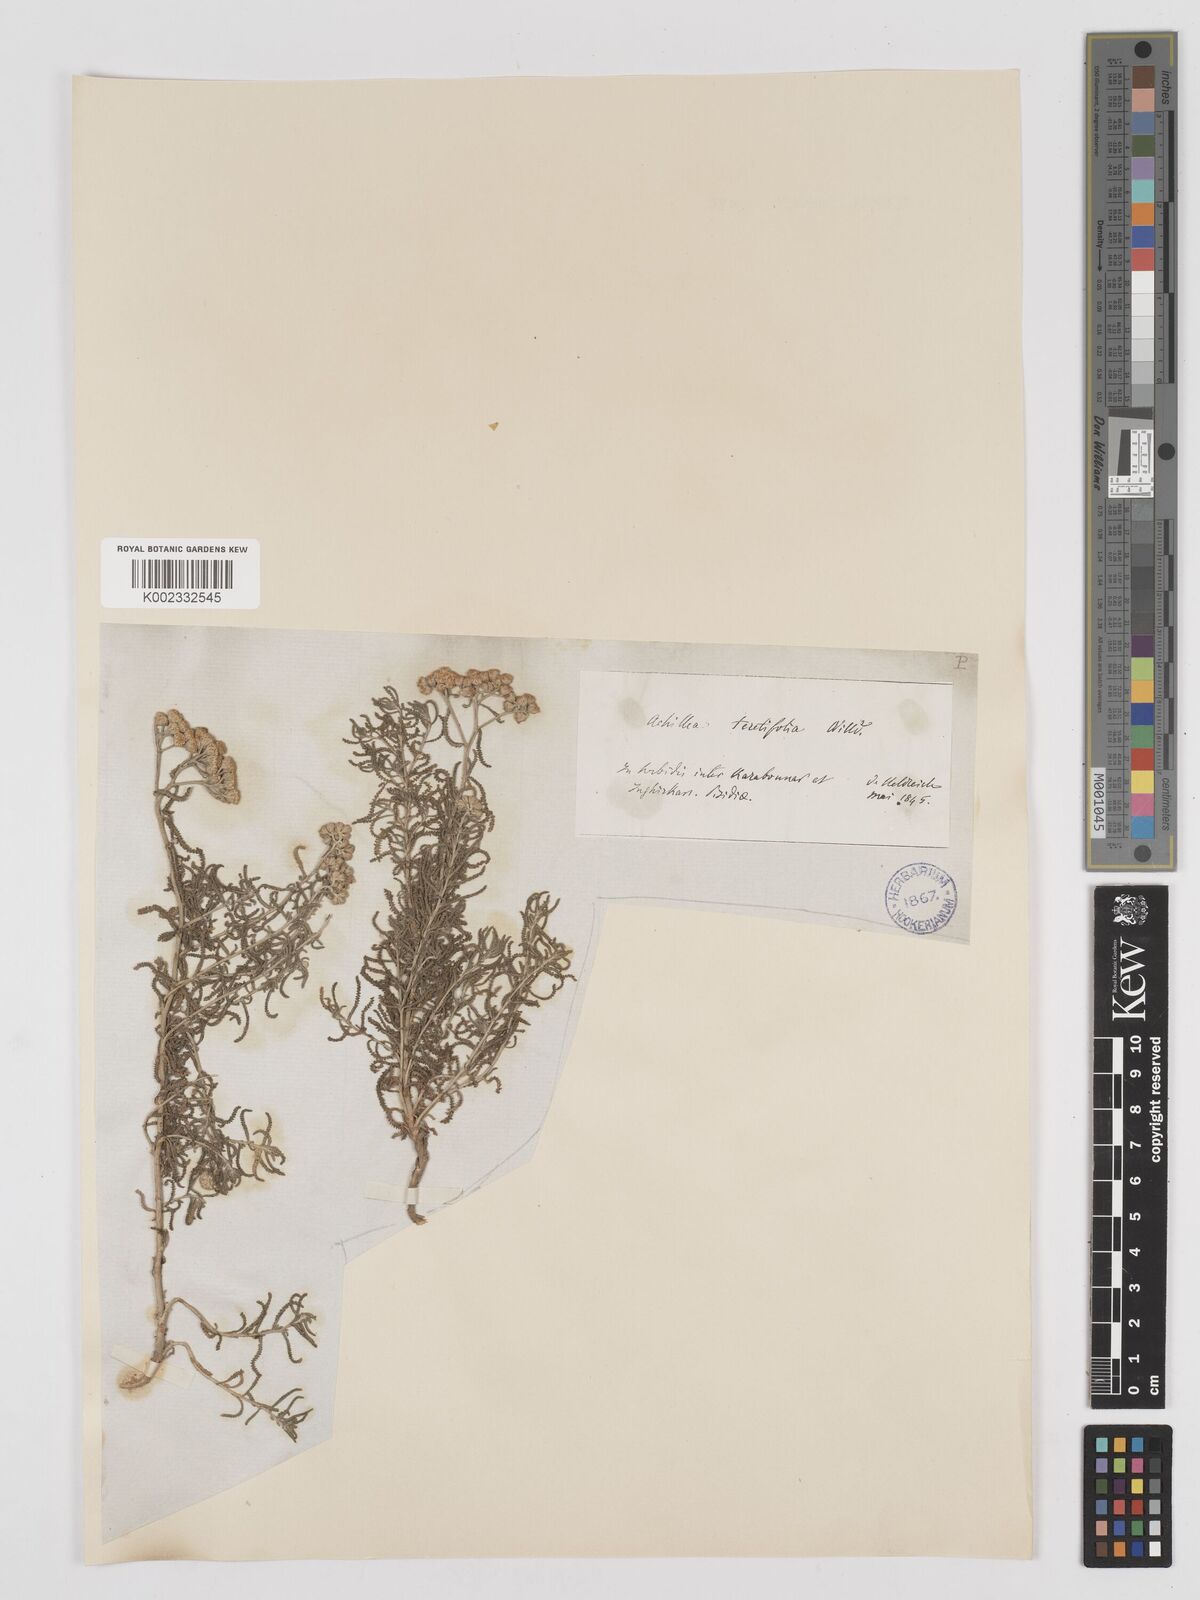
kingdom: Plantae
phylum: Tracheophyta
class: Magnoliopsida
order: Asterales
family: Asteraceae
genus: Achillea
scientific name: Achillea tenuifolia
